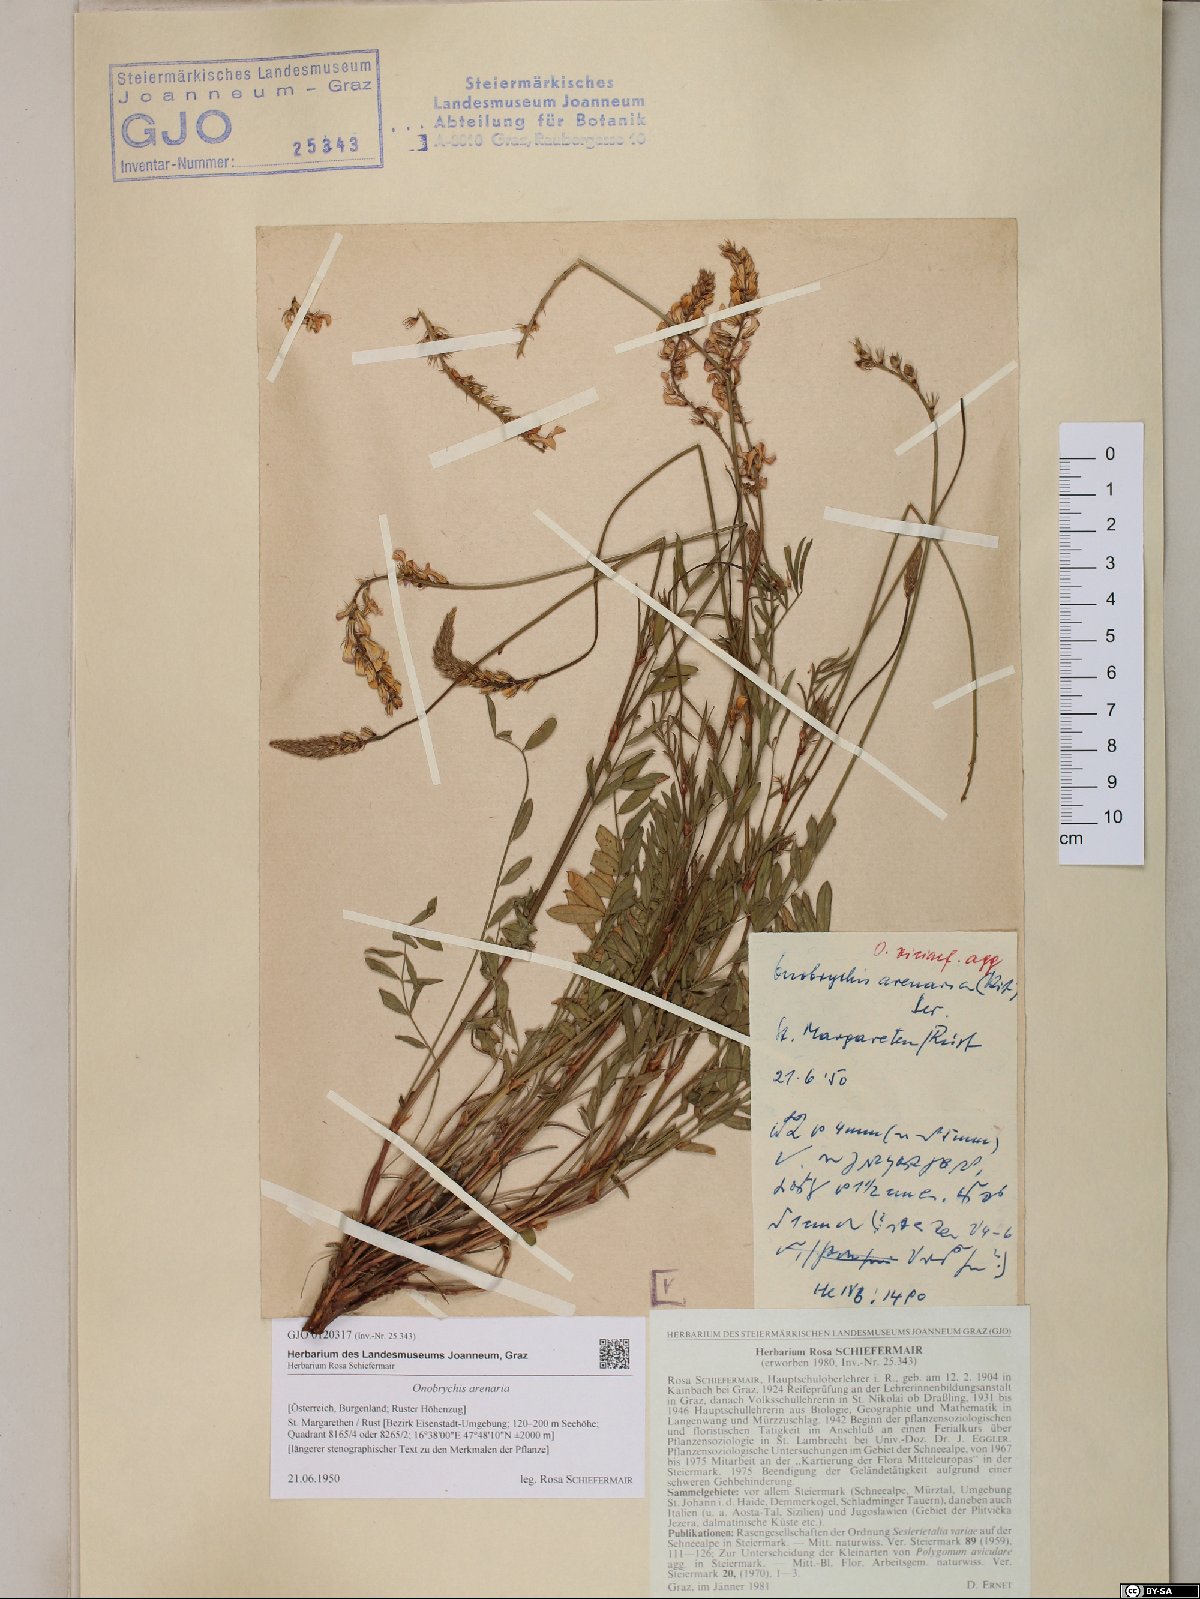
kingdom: Plantae
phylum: Tracheophyta
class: Magnoliopsida
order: Fabales
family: Fabaceae
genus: Onobrychis
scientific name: Onobrychis arenaria
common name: Sand esparcet
